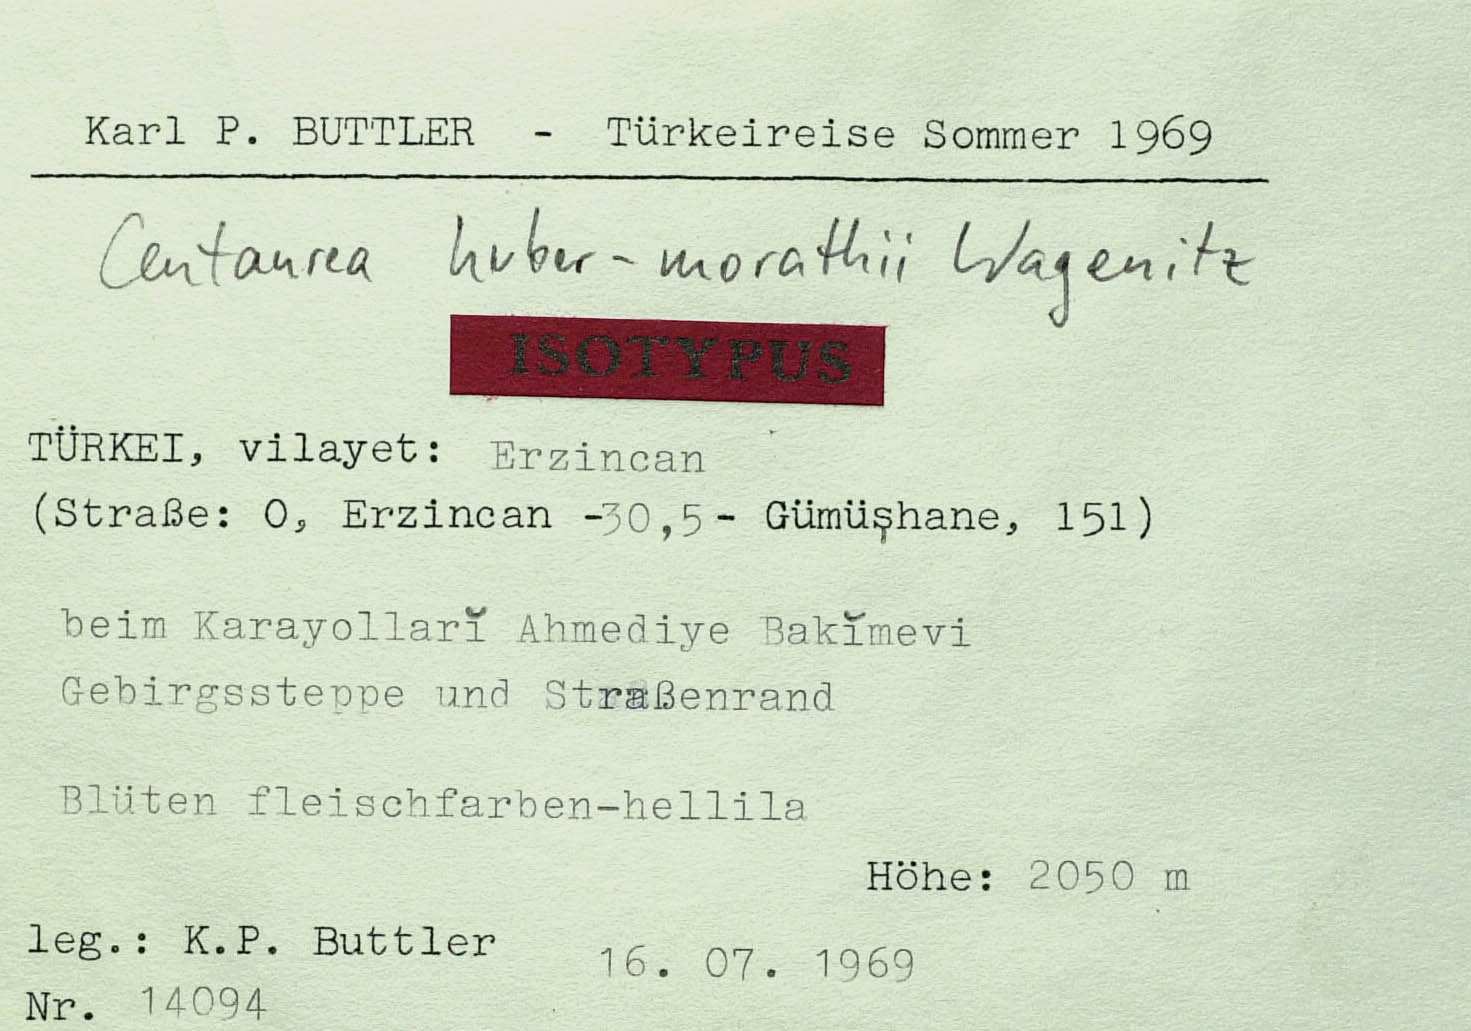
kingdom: Plantae
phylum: Tracheophyta
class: Magnoliopsida
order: Asterales
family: Asteraceae
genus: Psephellus
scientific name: Psephellus huber-morathii
